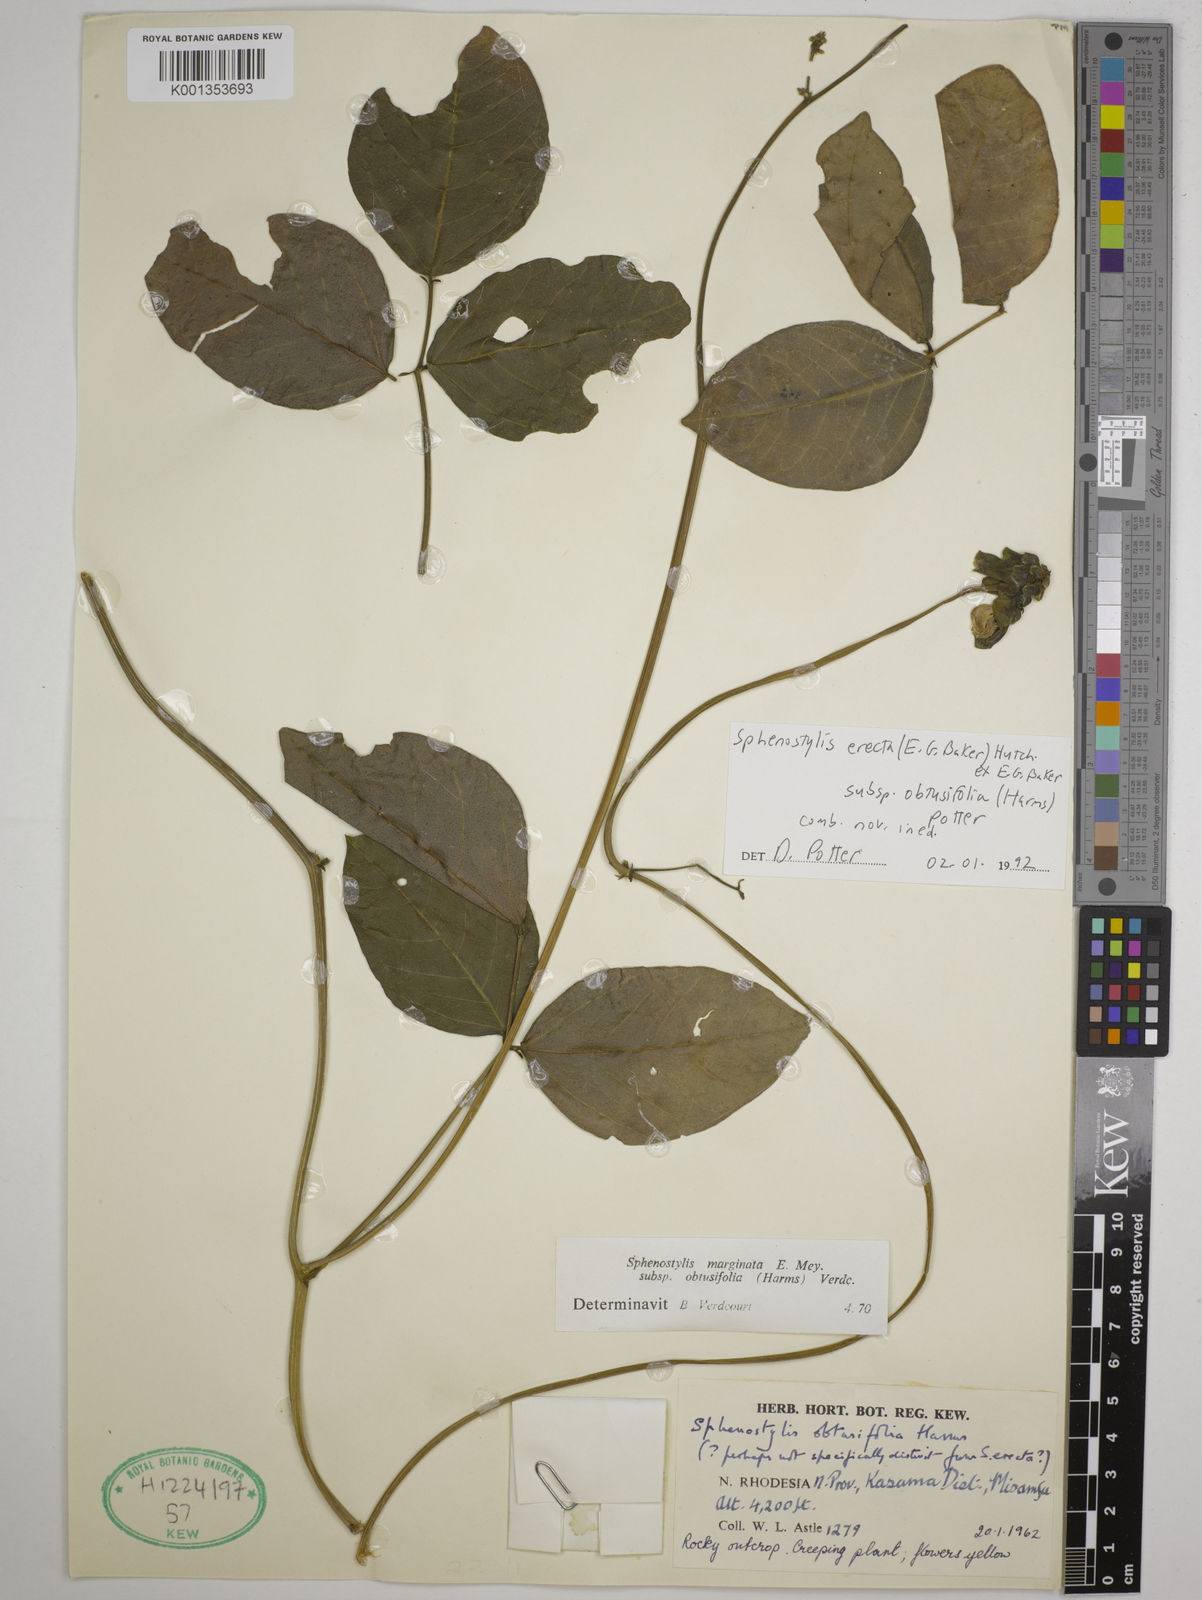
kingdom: Plantae
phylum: Tracheophyta
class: Magnoliopsida
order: Fabales
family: Fabaceae
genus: Sphenostylis
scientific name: Sphenostylis erecta
